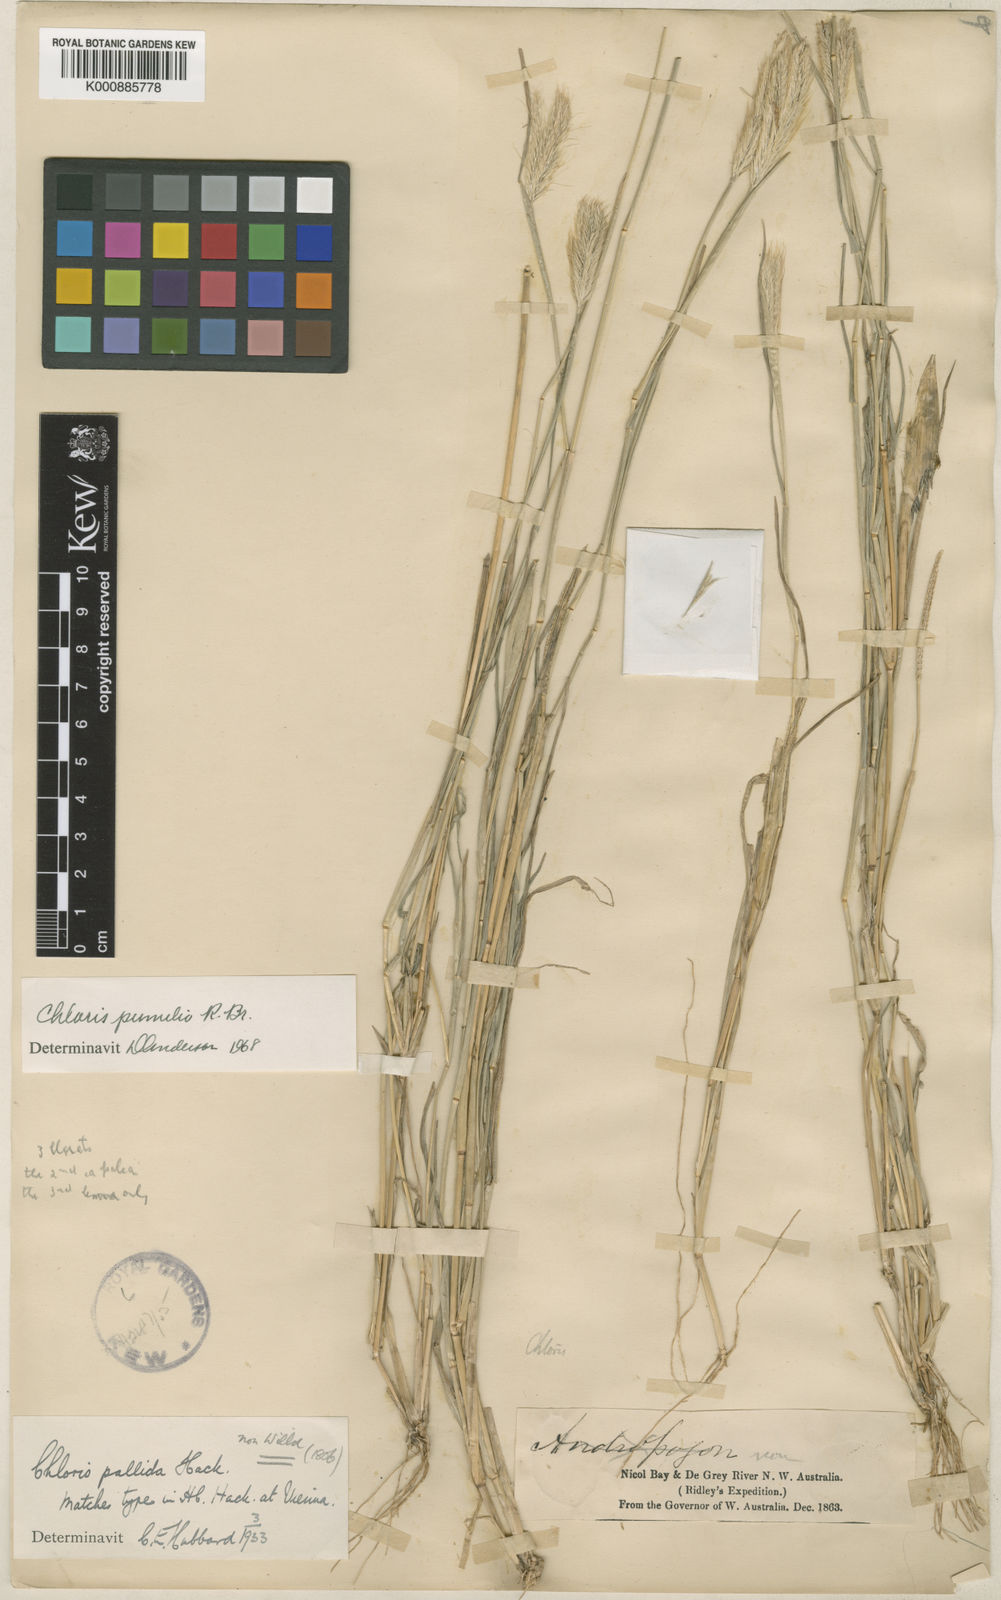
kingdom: Plantae
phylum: Tracheophyta
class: Liliopsida
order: Poales
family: Poaceae
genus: Chloris
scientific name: Chloris pumilio
